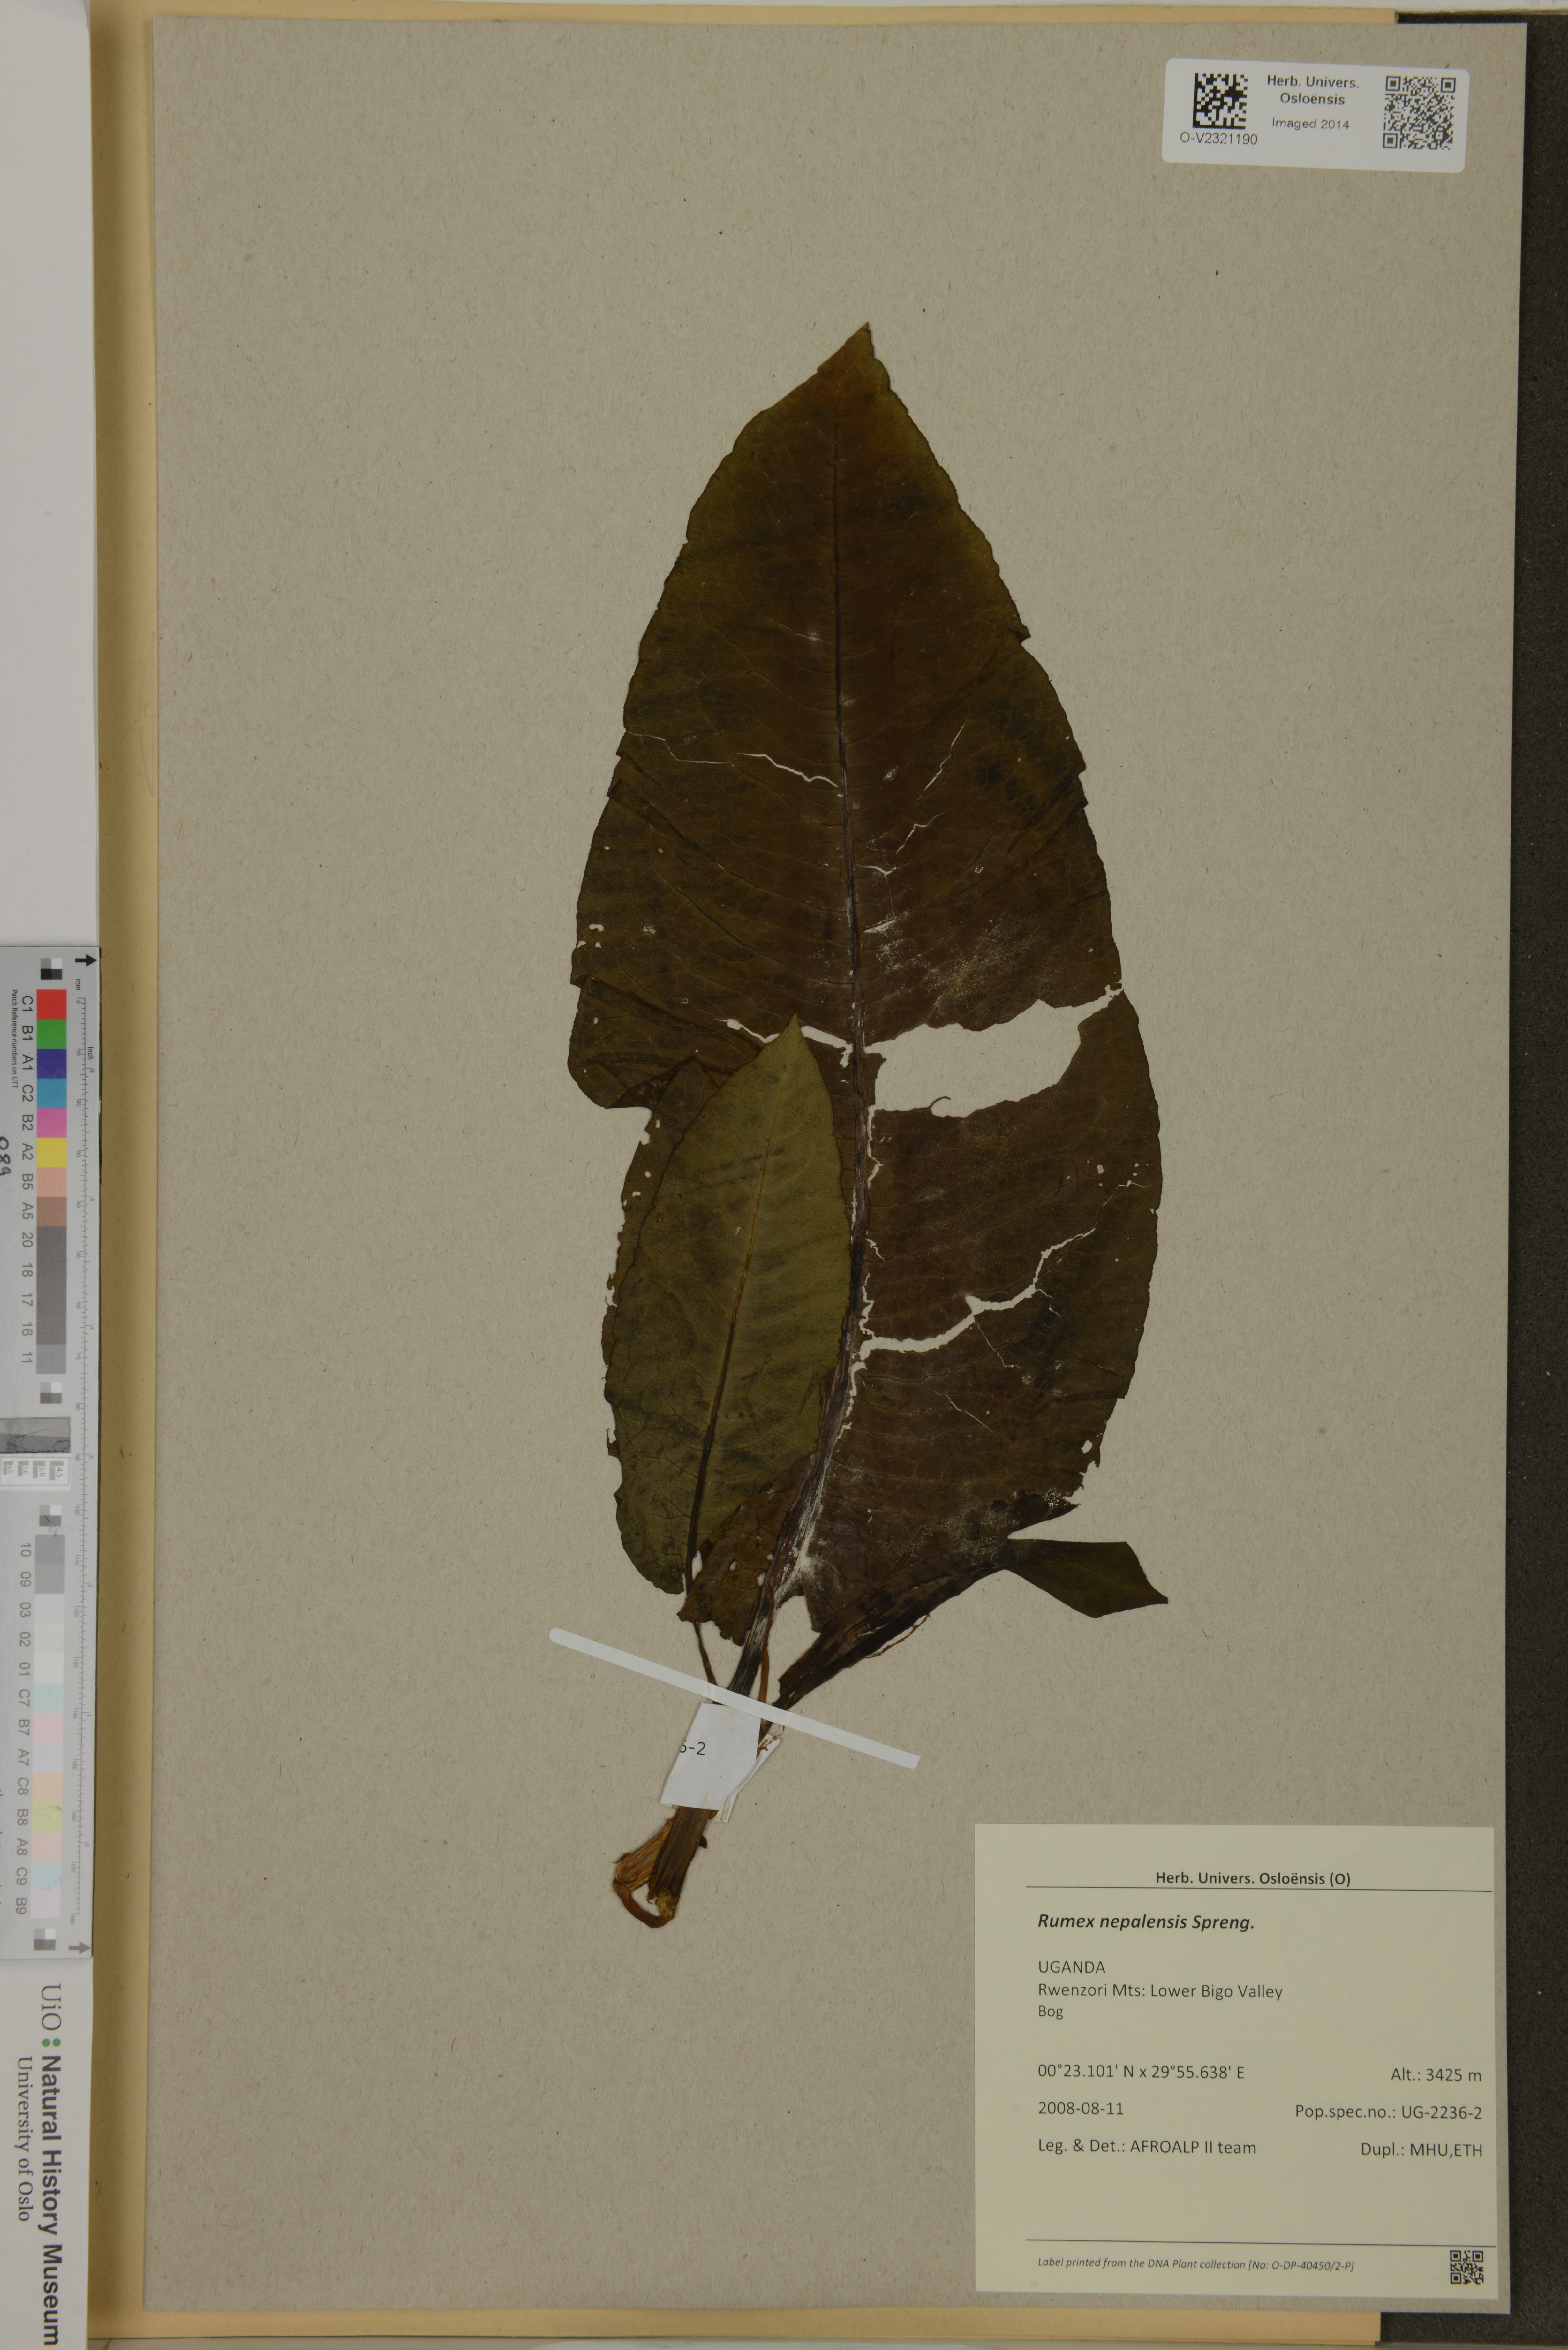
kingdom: Plantae
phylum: Tracheophyta
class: Magnoliopsida
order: Caryophyllales
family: Polygonaceae
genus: Rumex
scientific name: Rumex nepalensis
